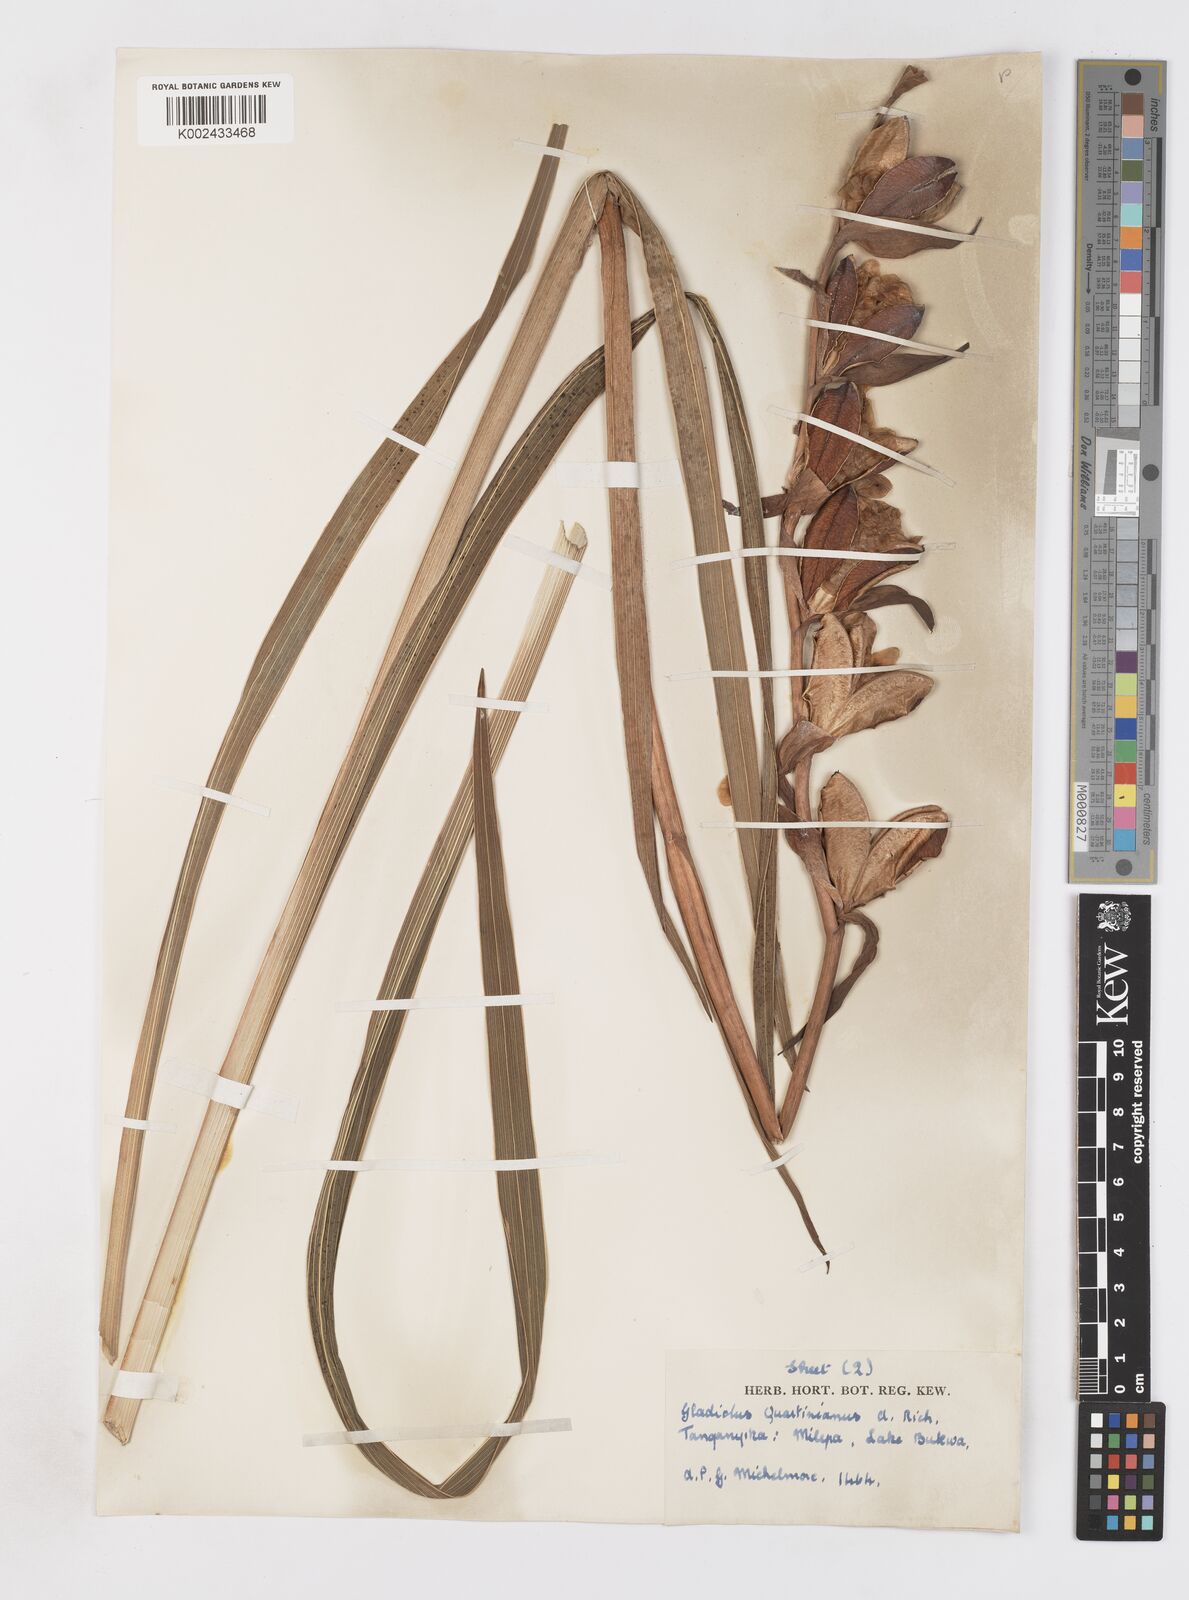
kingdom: Plantae
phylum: Tracheophyta
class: Liliopsida
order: Asparagales
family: Iridaceae
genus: Gladiolus
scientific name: Gladiolus dalenii
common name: Cornflag
